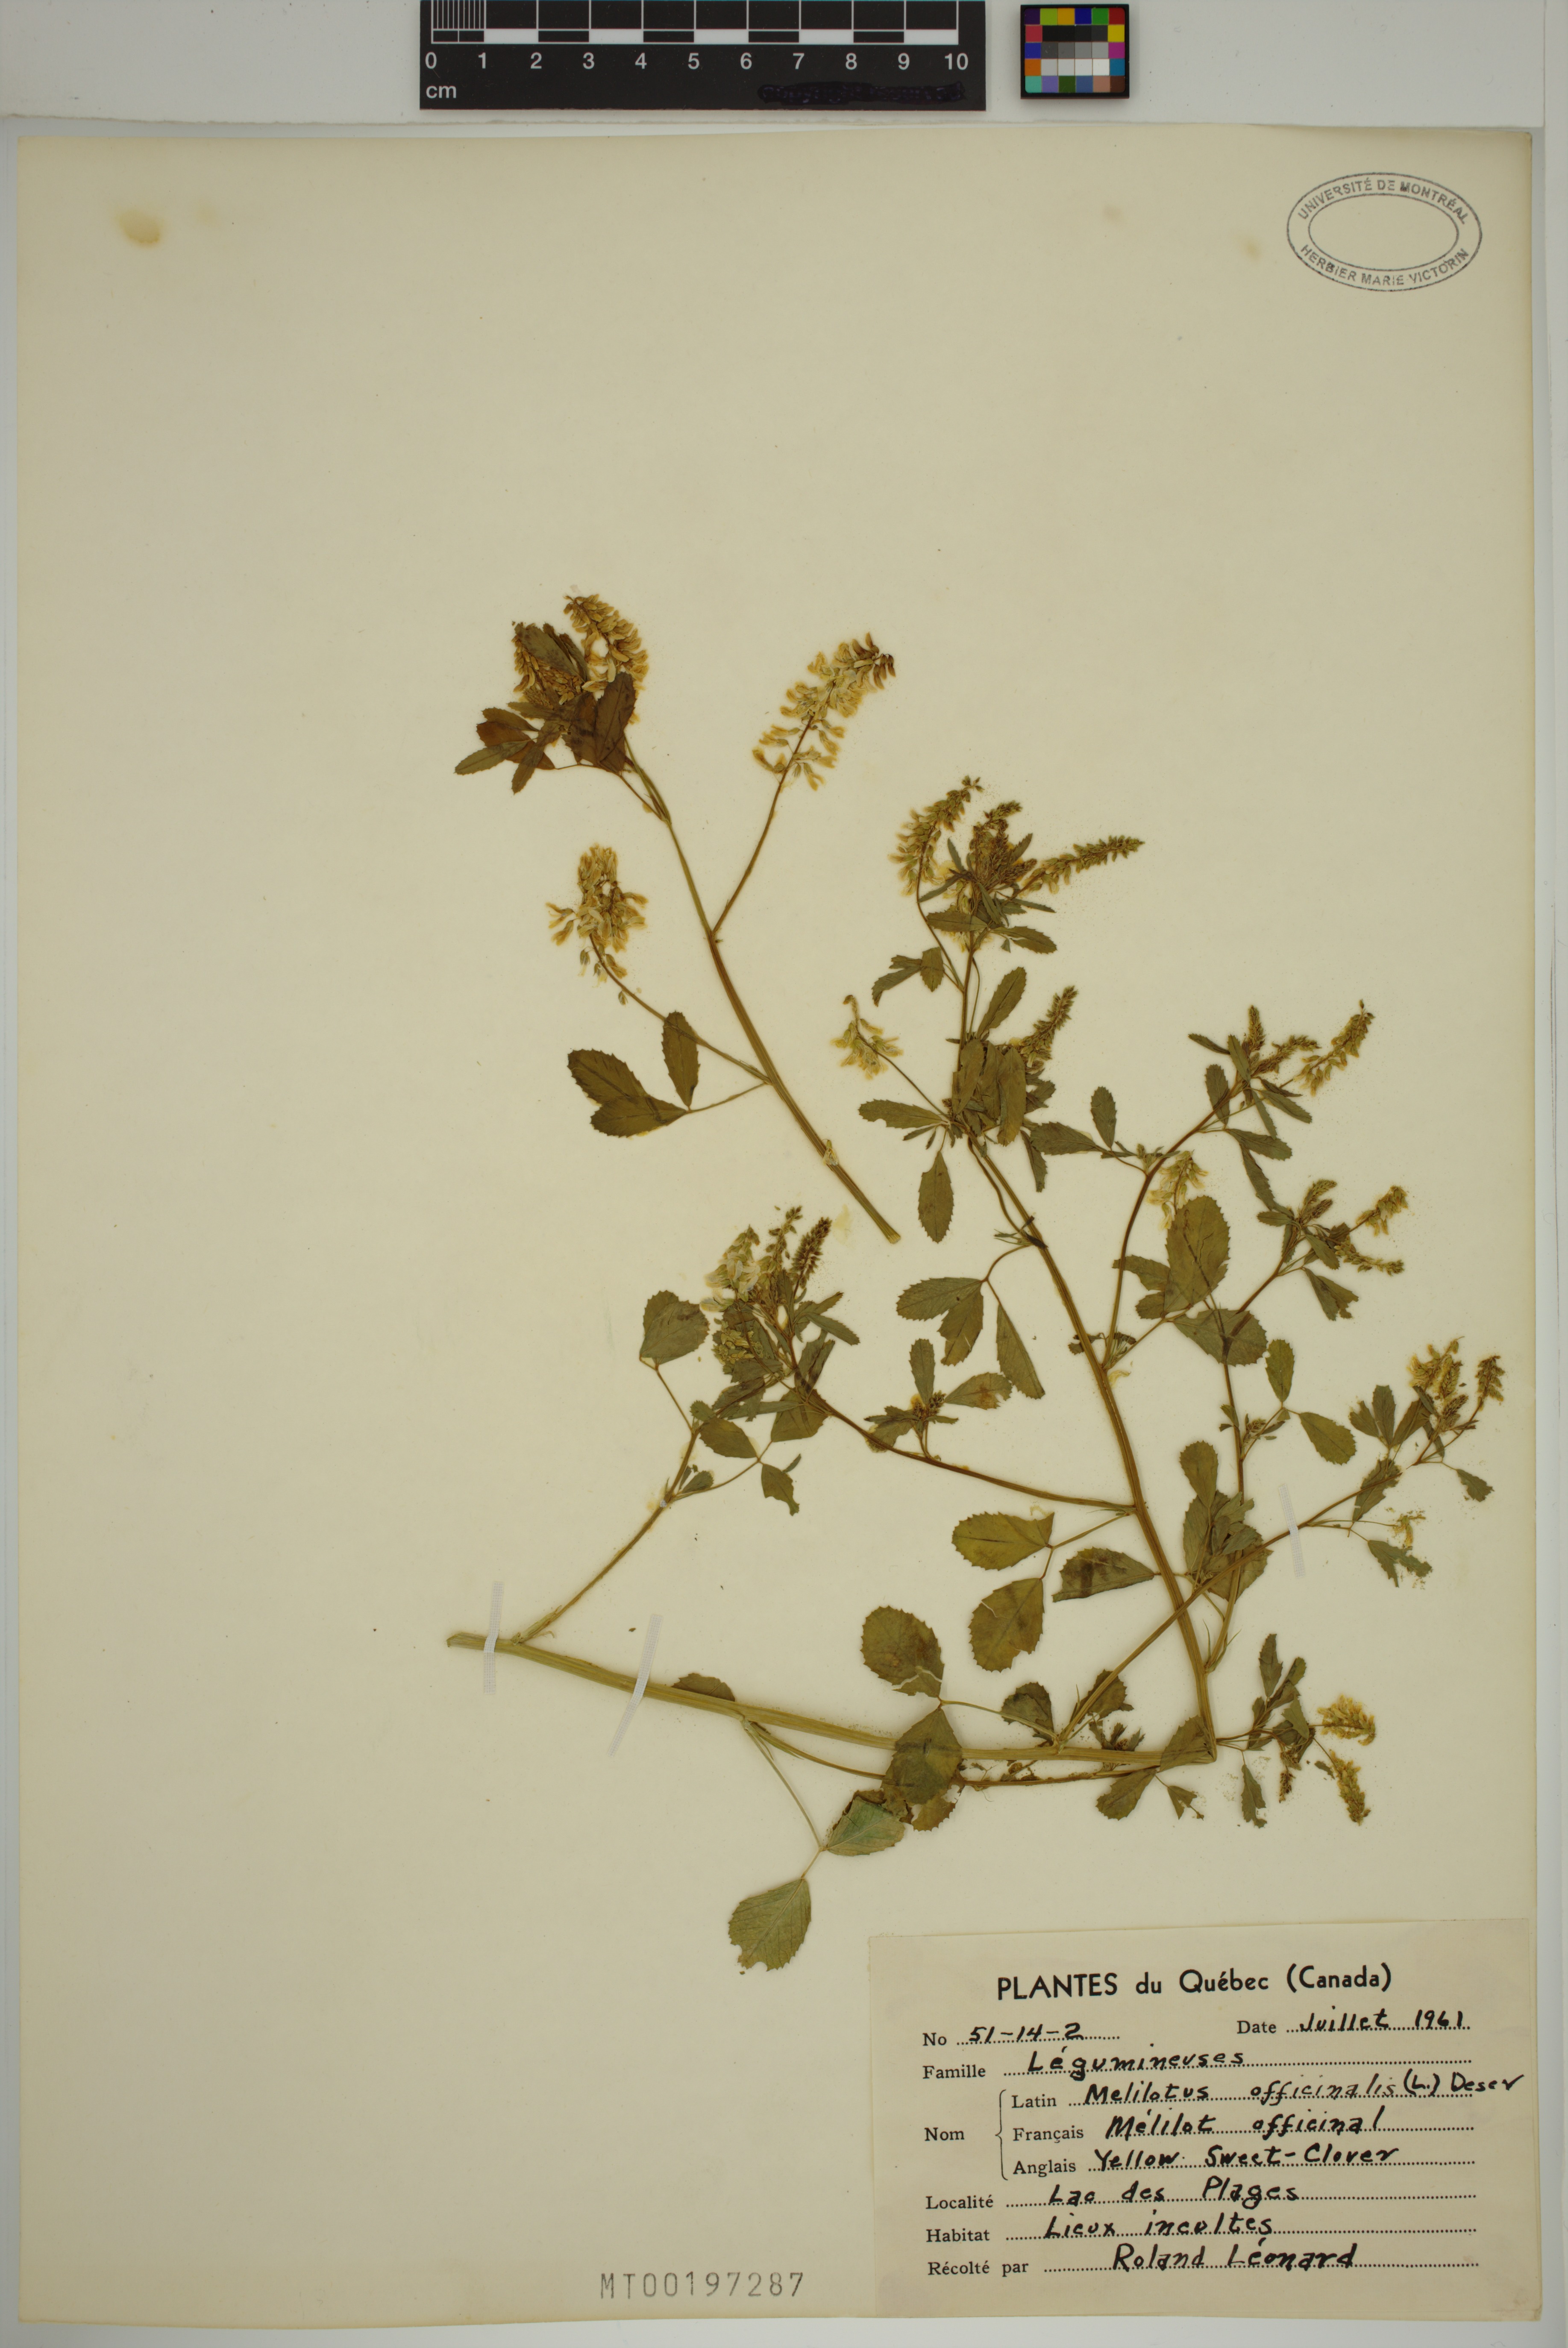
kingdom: Plantae
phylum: Tracheophyta
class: Magnoliopsida
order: Fabales
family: Fabaceae
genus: Melilotus
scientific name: Melilotus officinalis
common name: Sweetclover
